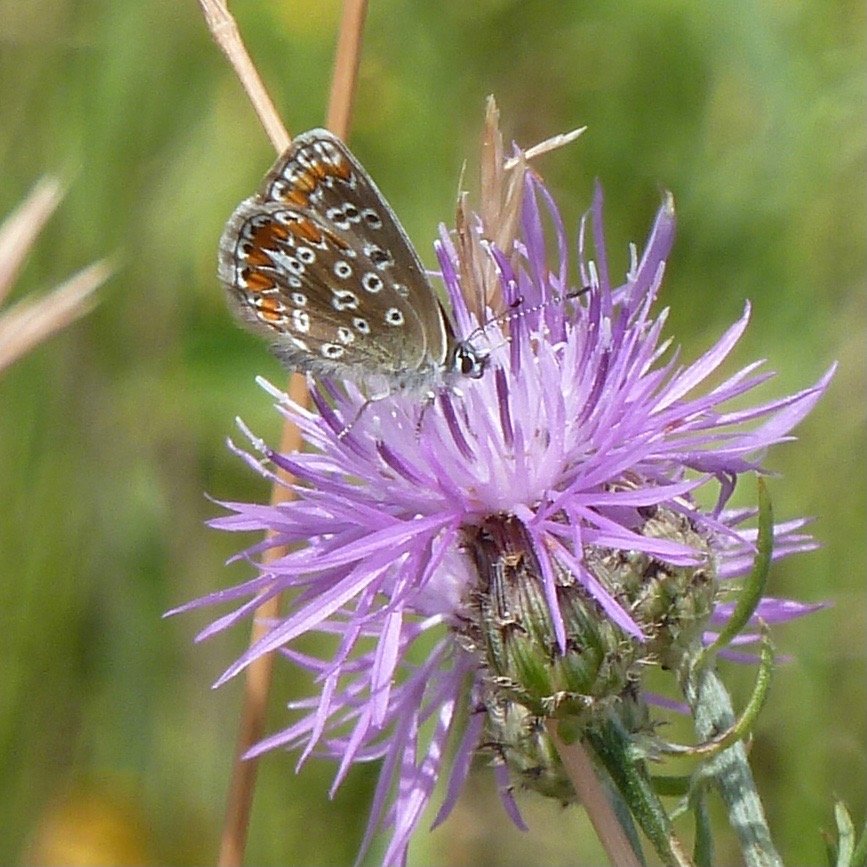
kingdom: Animalia
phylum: Arthropoda
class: Insecta
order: Lepidoptera
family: Lycaenidae
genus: Polyommatus
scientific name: Polyommatus icarus
